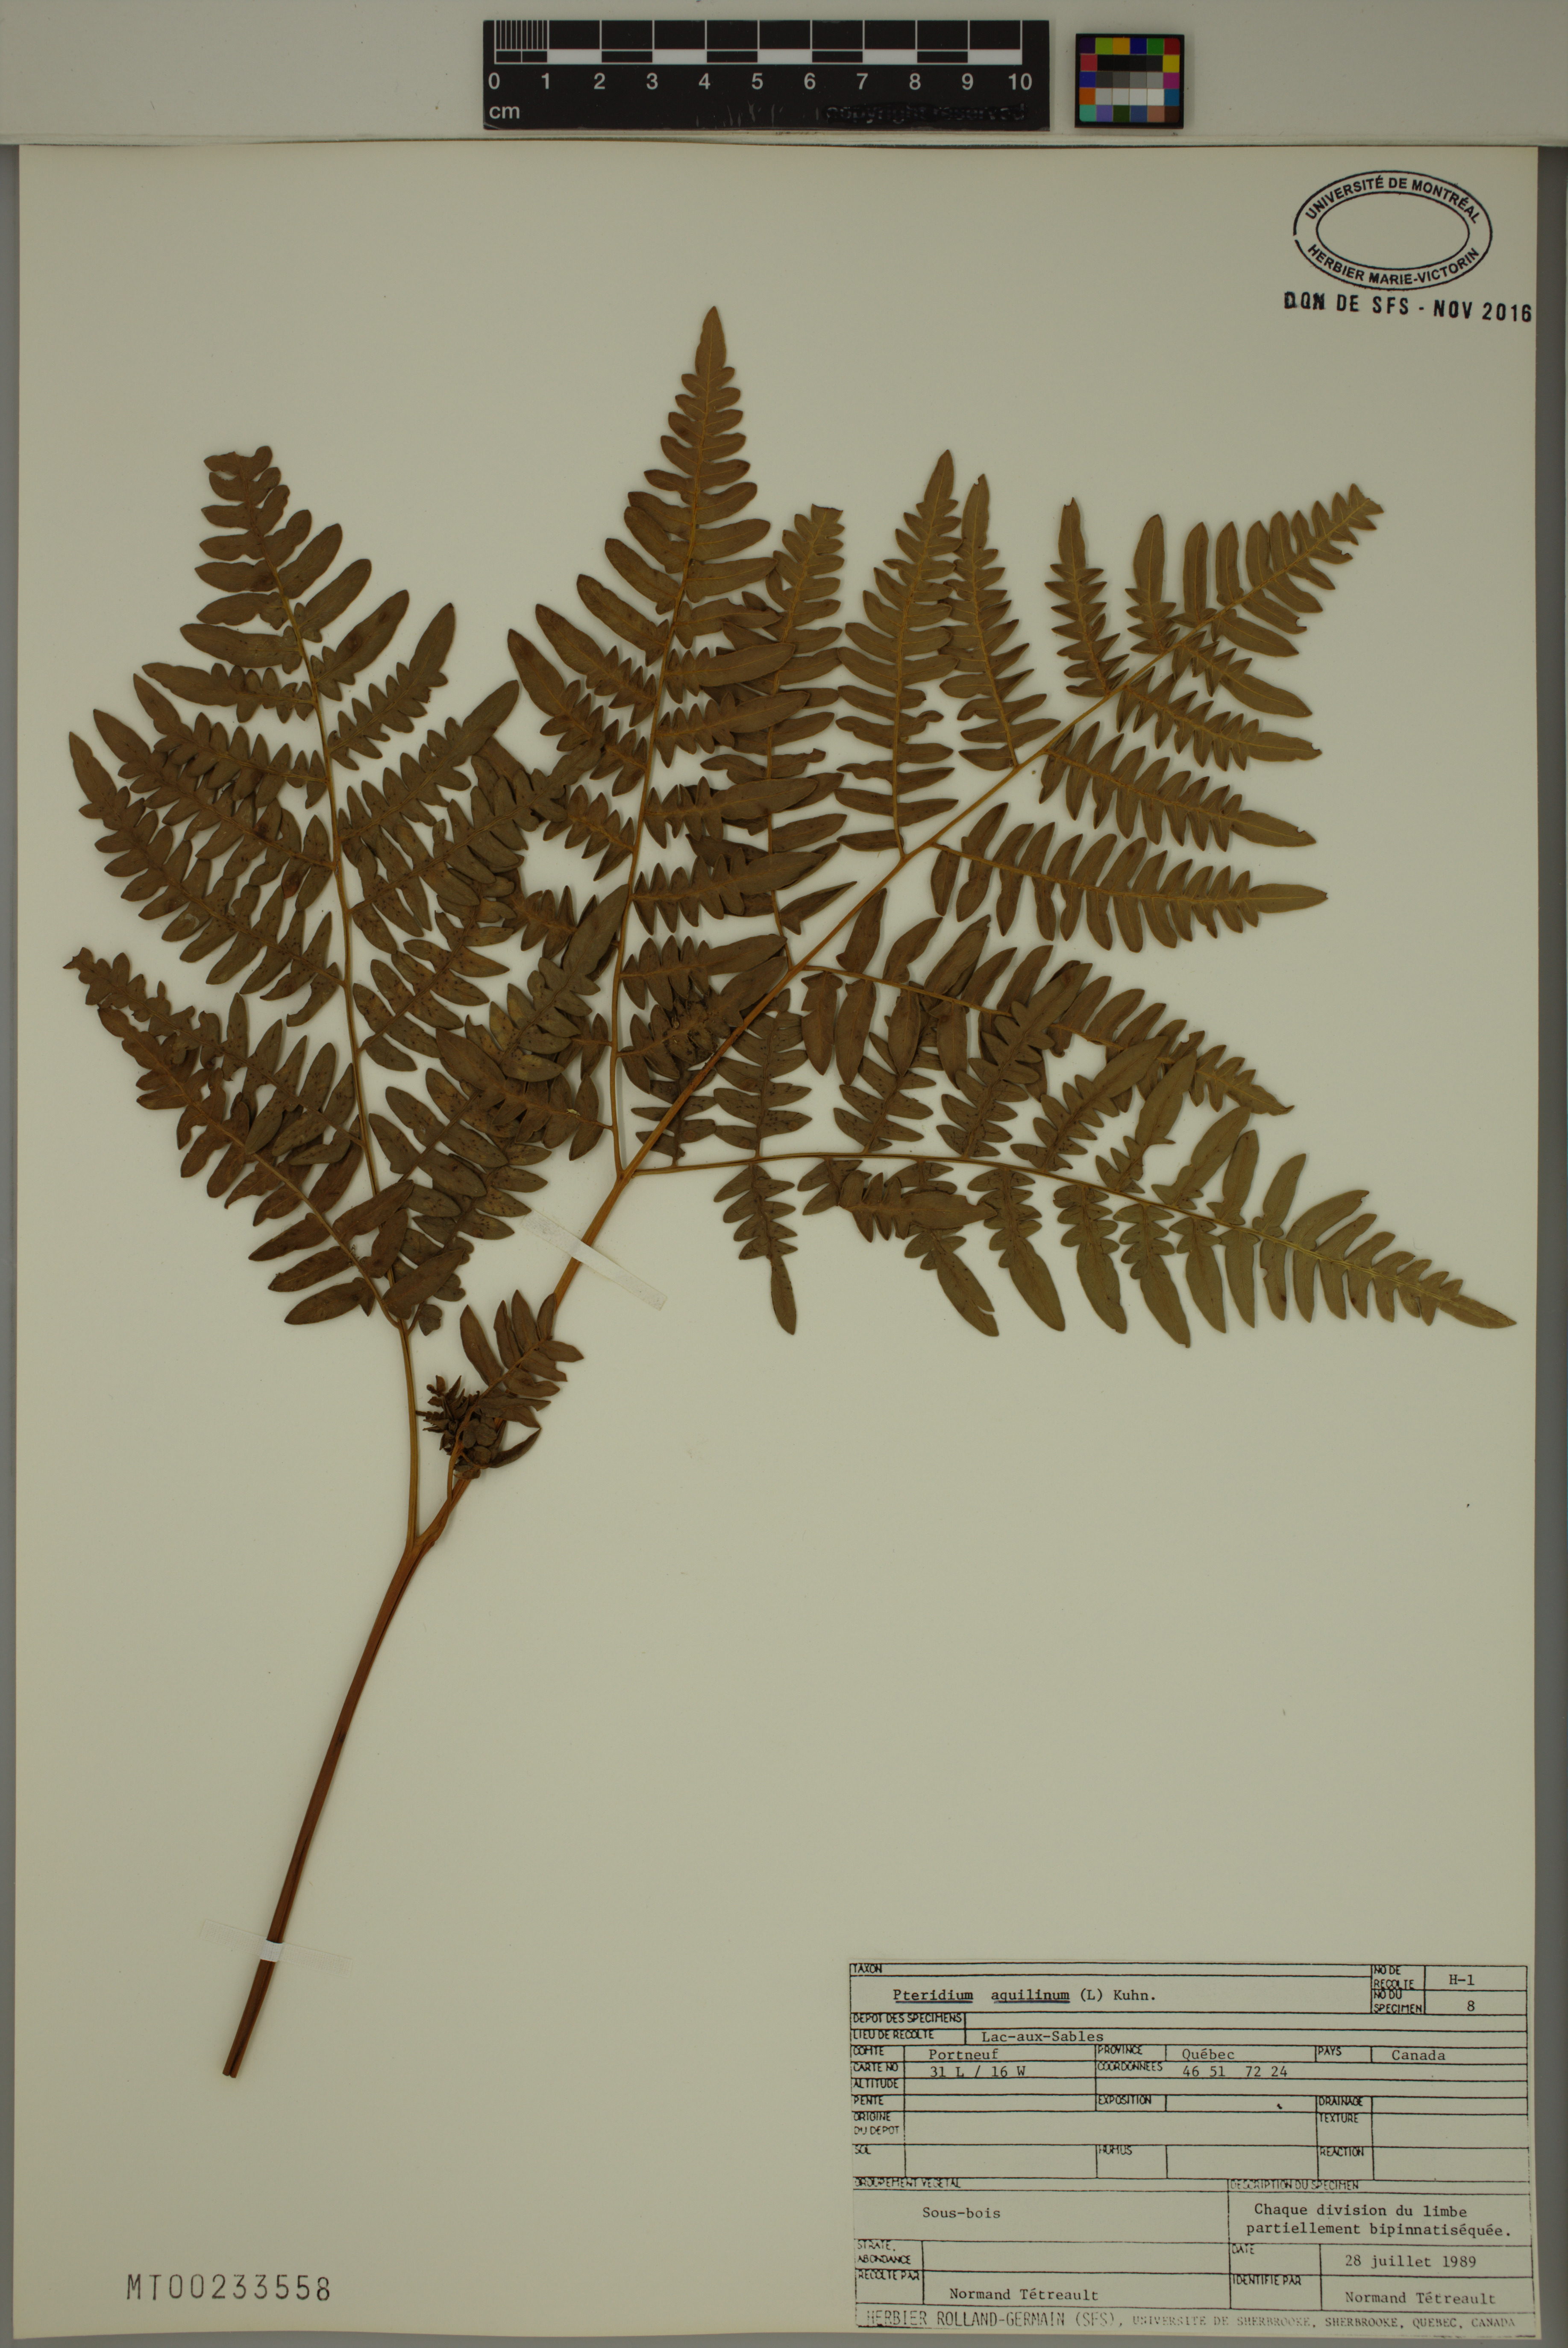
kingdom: Plantae
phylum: Tracheophyta
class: Polypodiopsida
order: Polypodiales
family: Dennstaedtiaceae
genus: Pteridium
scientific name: Pteridium aquilinum
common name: Bracken
